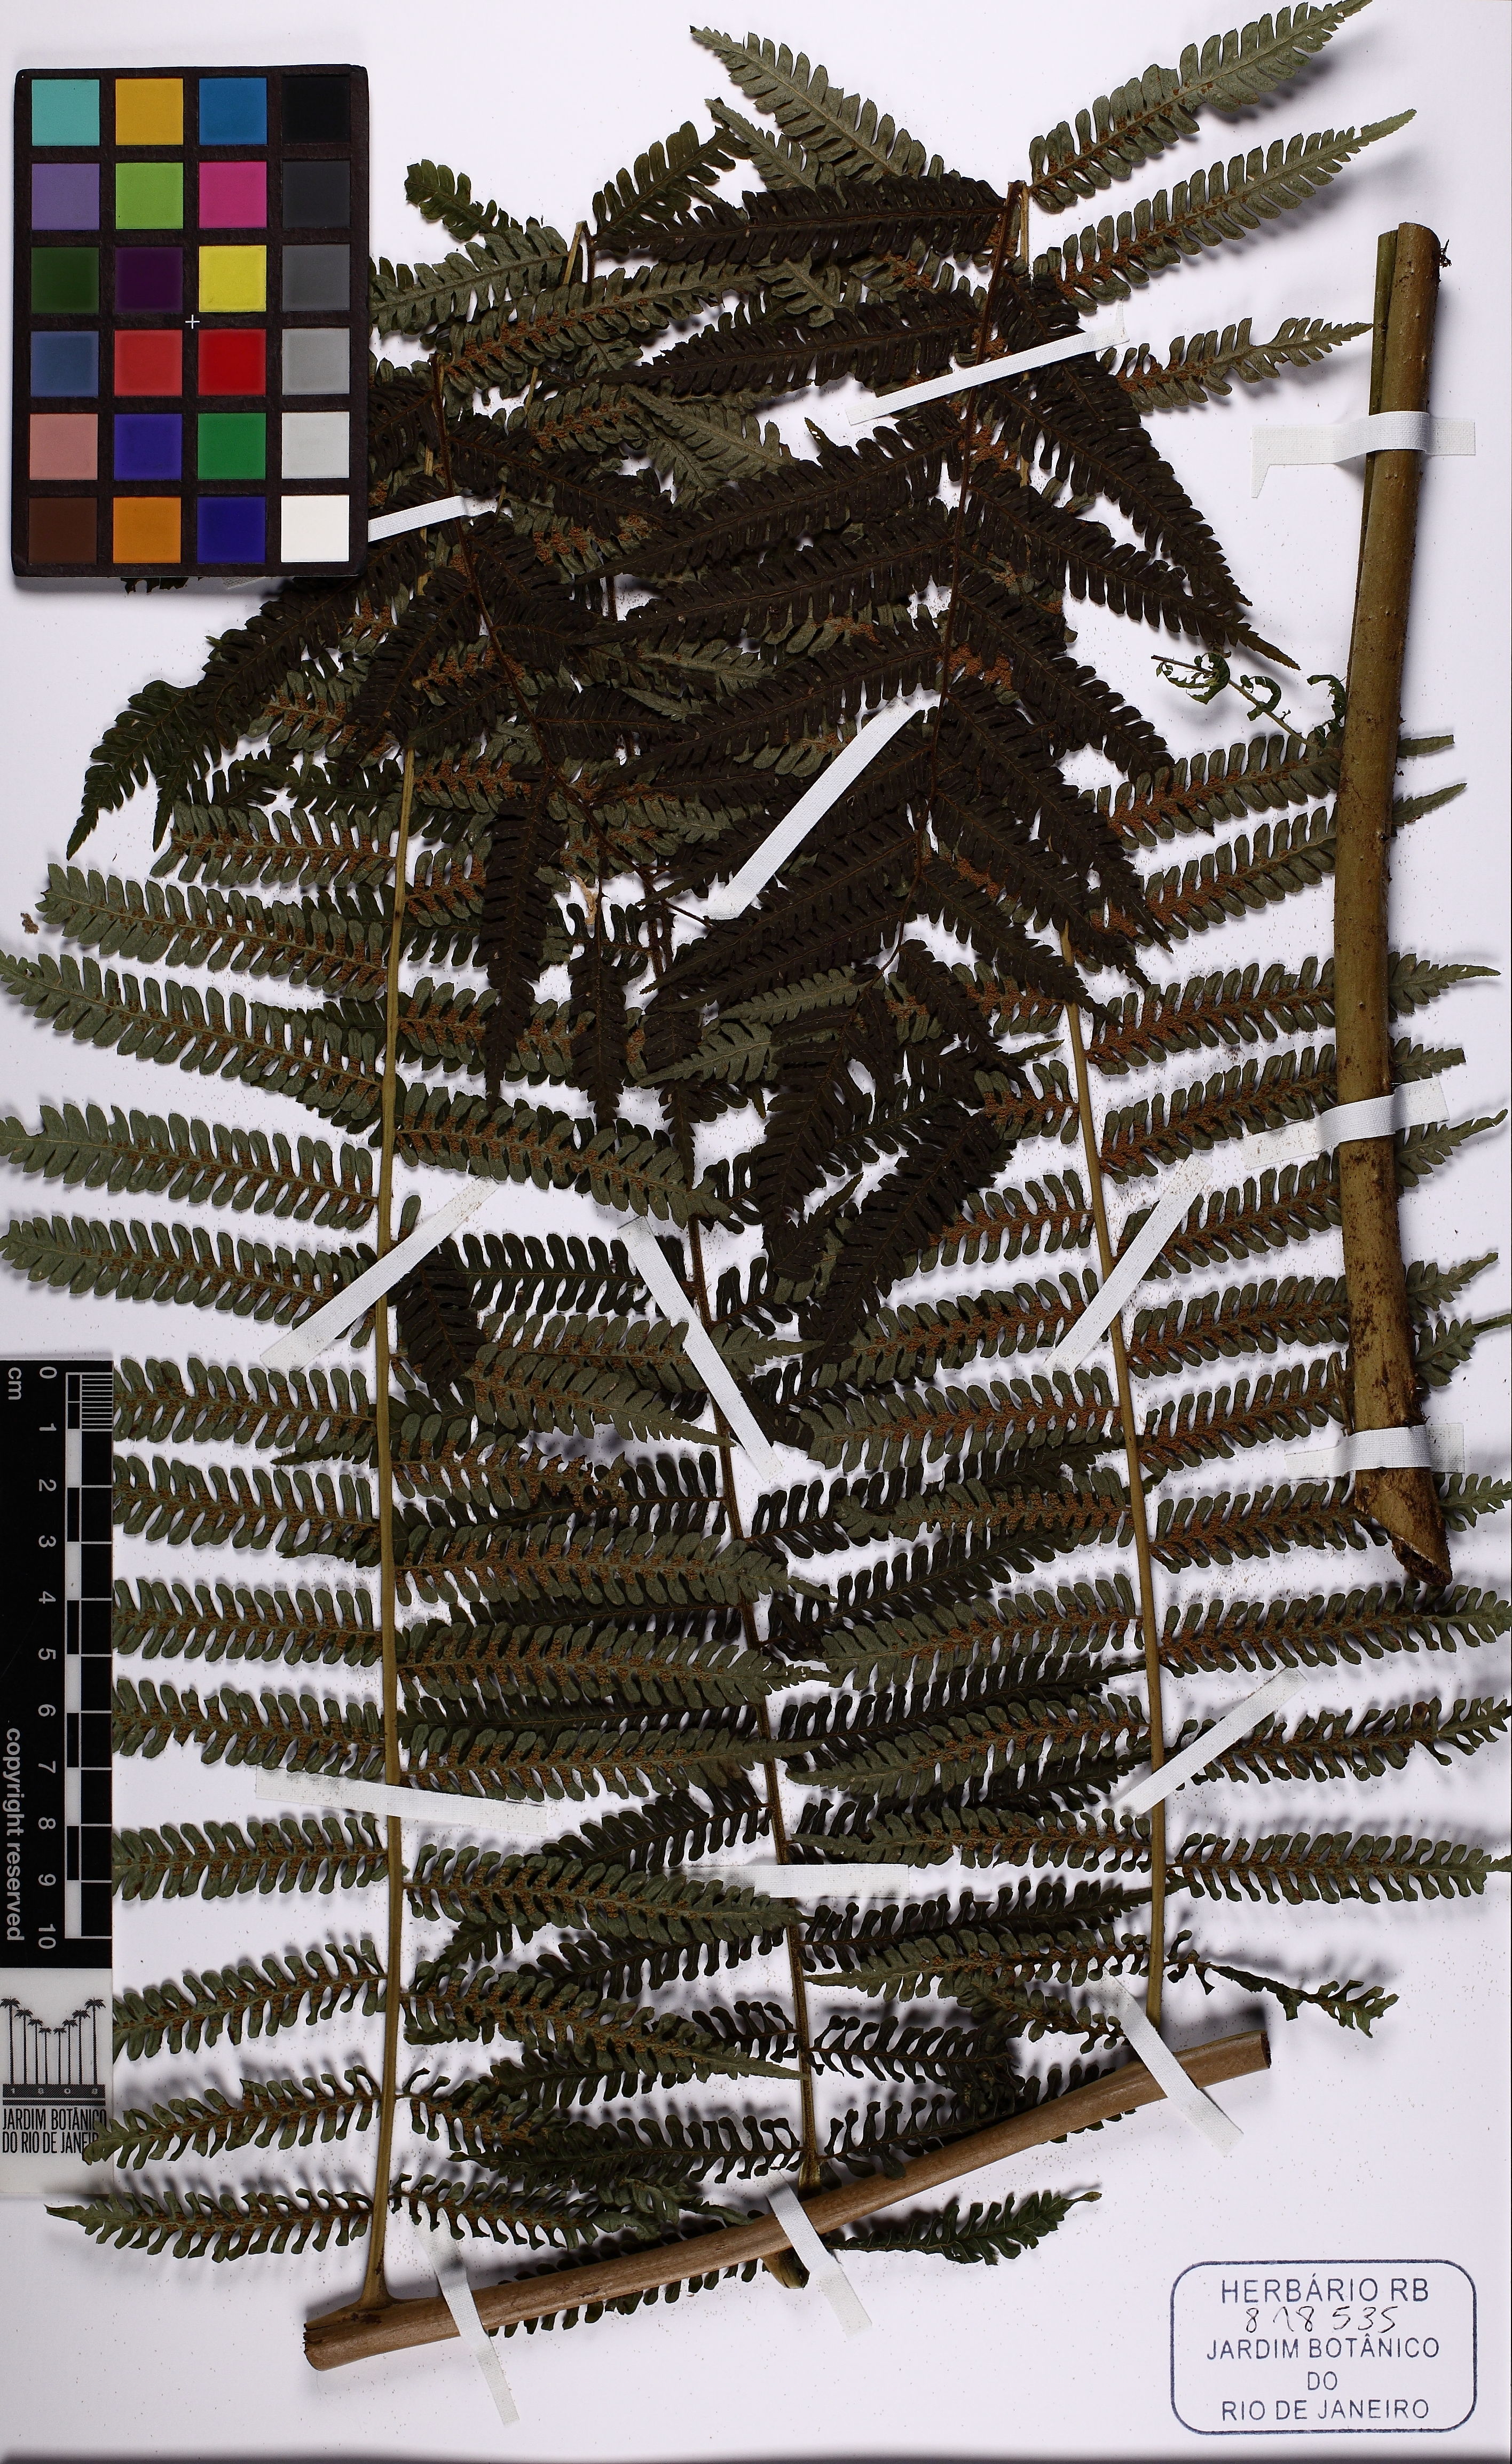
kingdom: Plantae
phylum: Tracheophyta
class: Polypodiopsida
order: Cyatheales
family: Cyatheaceae
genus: Alsophila
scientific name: Alsophila setosa
